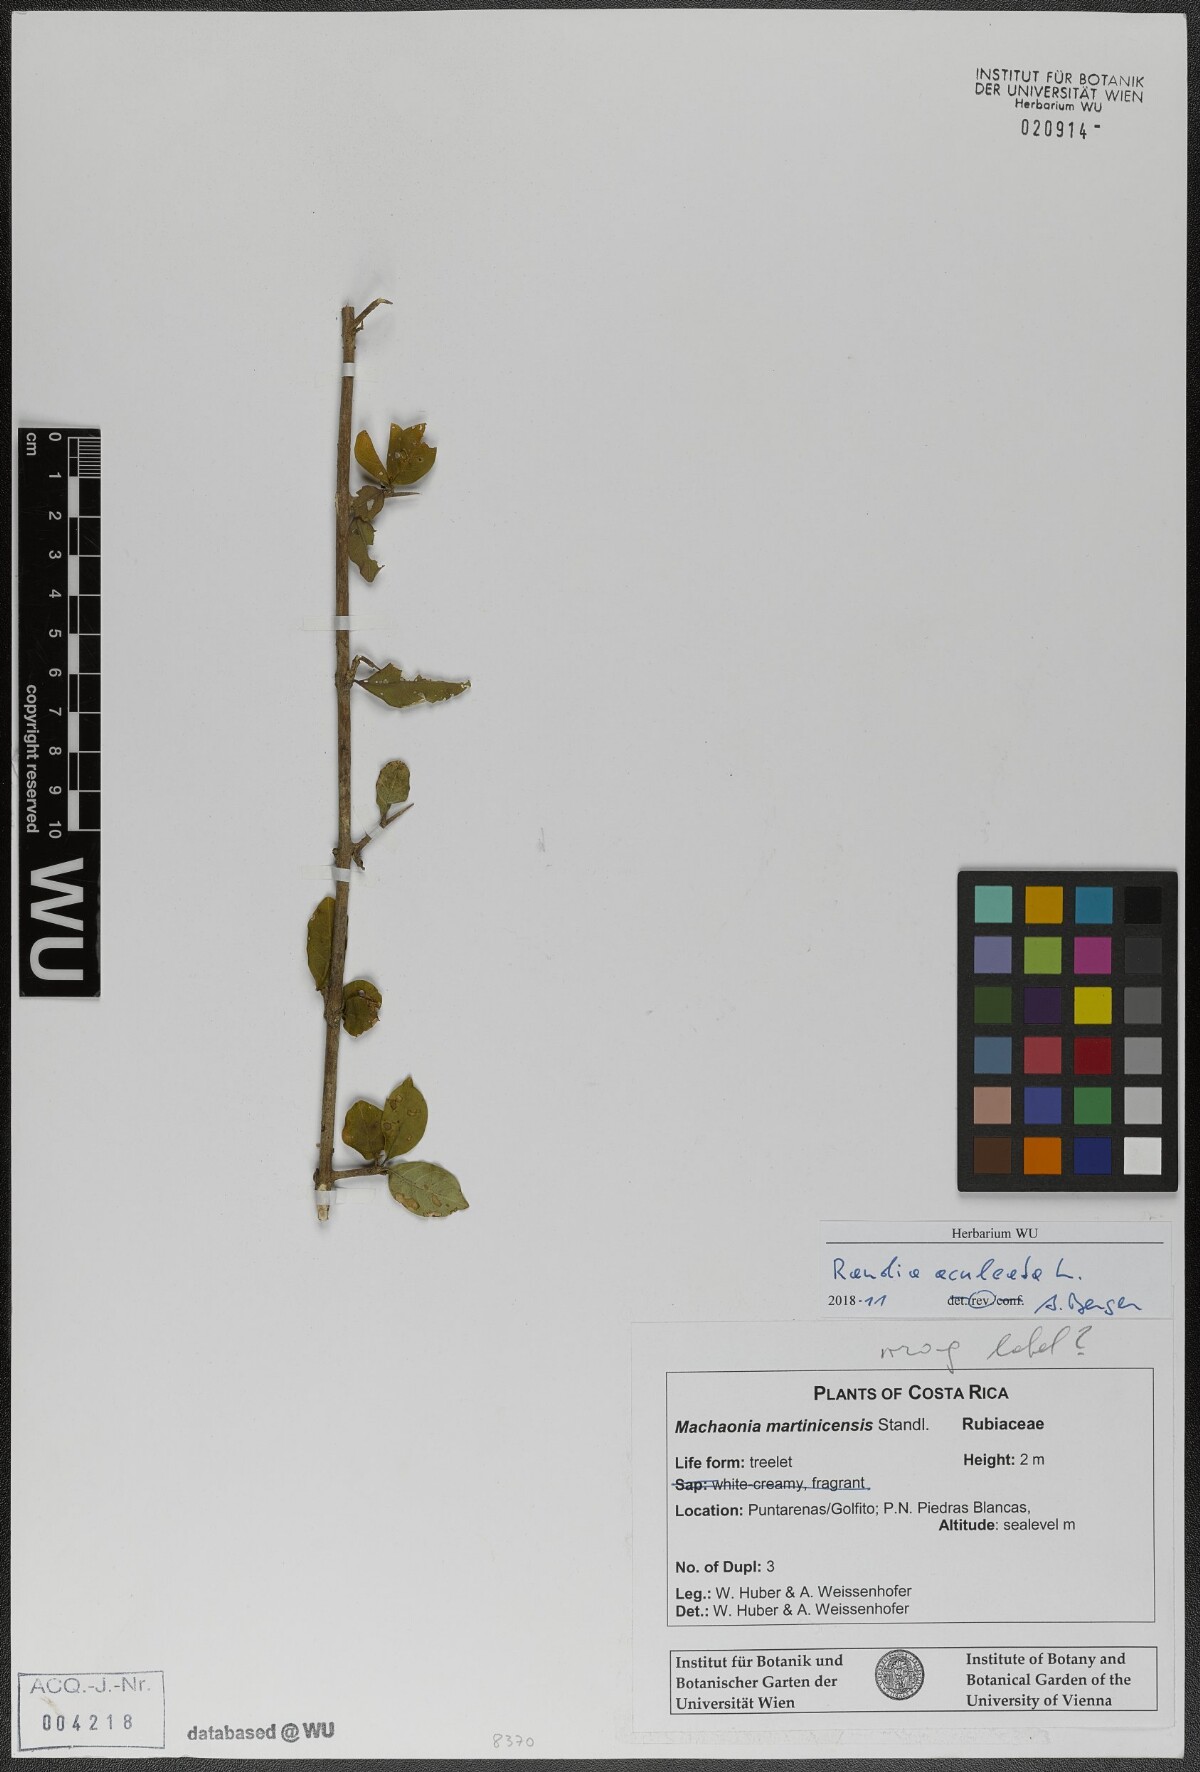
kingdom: Plantae
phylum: Tracheophyta
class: Magnoliopsida
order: Gentianales
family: Rubiaceae
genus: Randia
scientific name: Randia aculeata
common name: Inkberry
